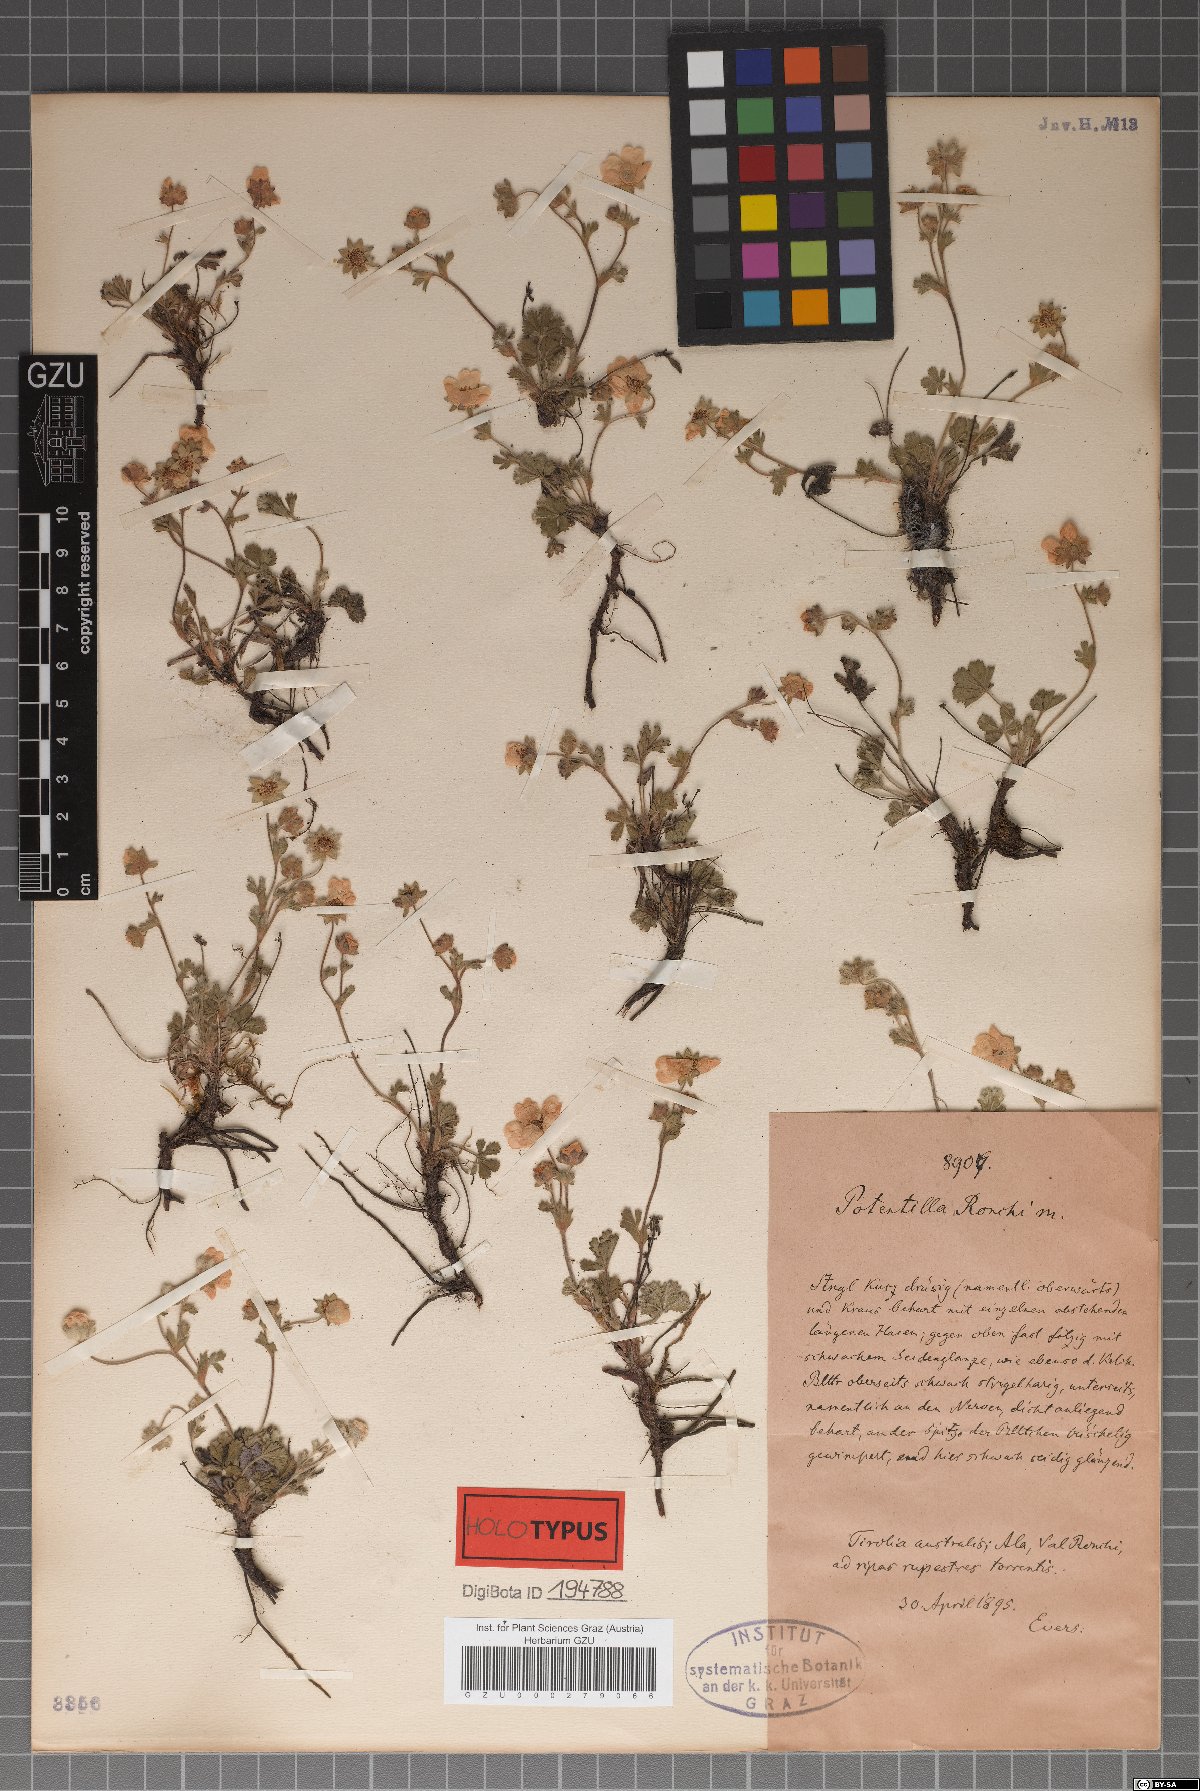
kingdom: Plantae
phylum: Tracheophyta
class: Magnoliopsida
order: Rosales
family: Rosaceae
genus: Potentilla
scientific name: Potentilla pusilla
